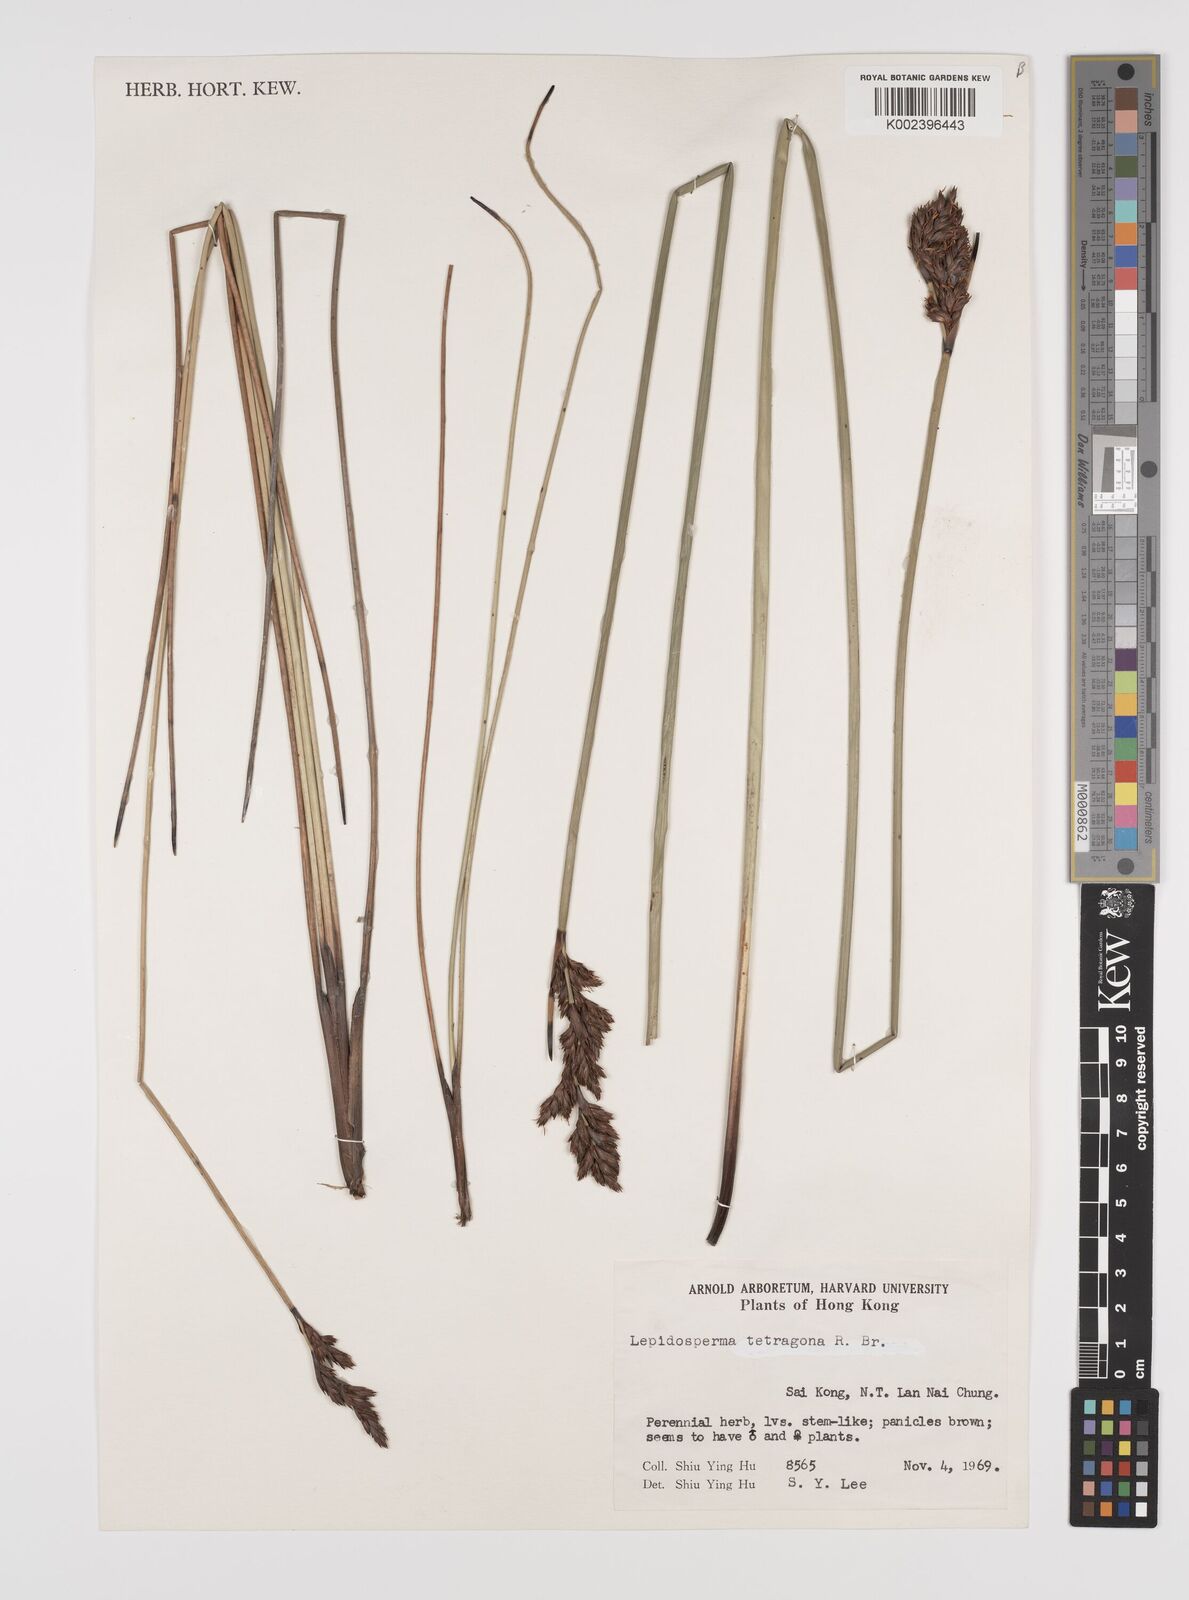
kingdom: Plantae
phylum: Tracheophyta
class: Liliopsida
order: Poales
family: Cyperaceae
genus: Lepidosperma
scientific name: Lepidosperma chinense
